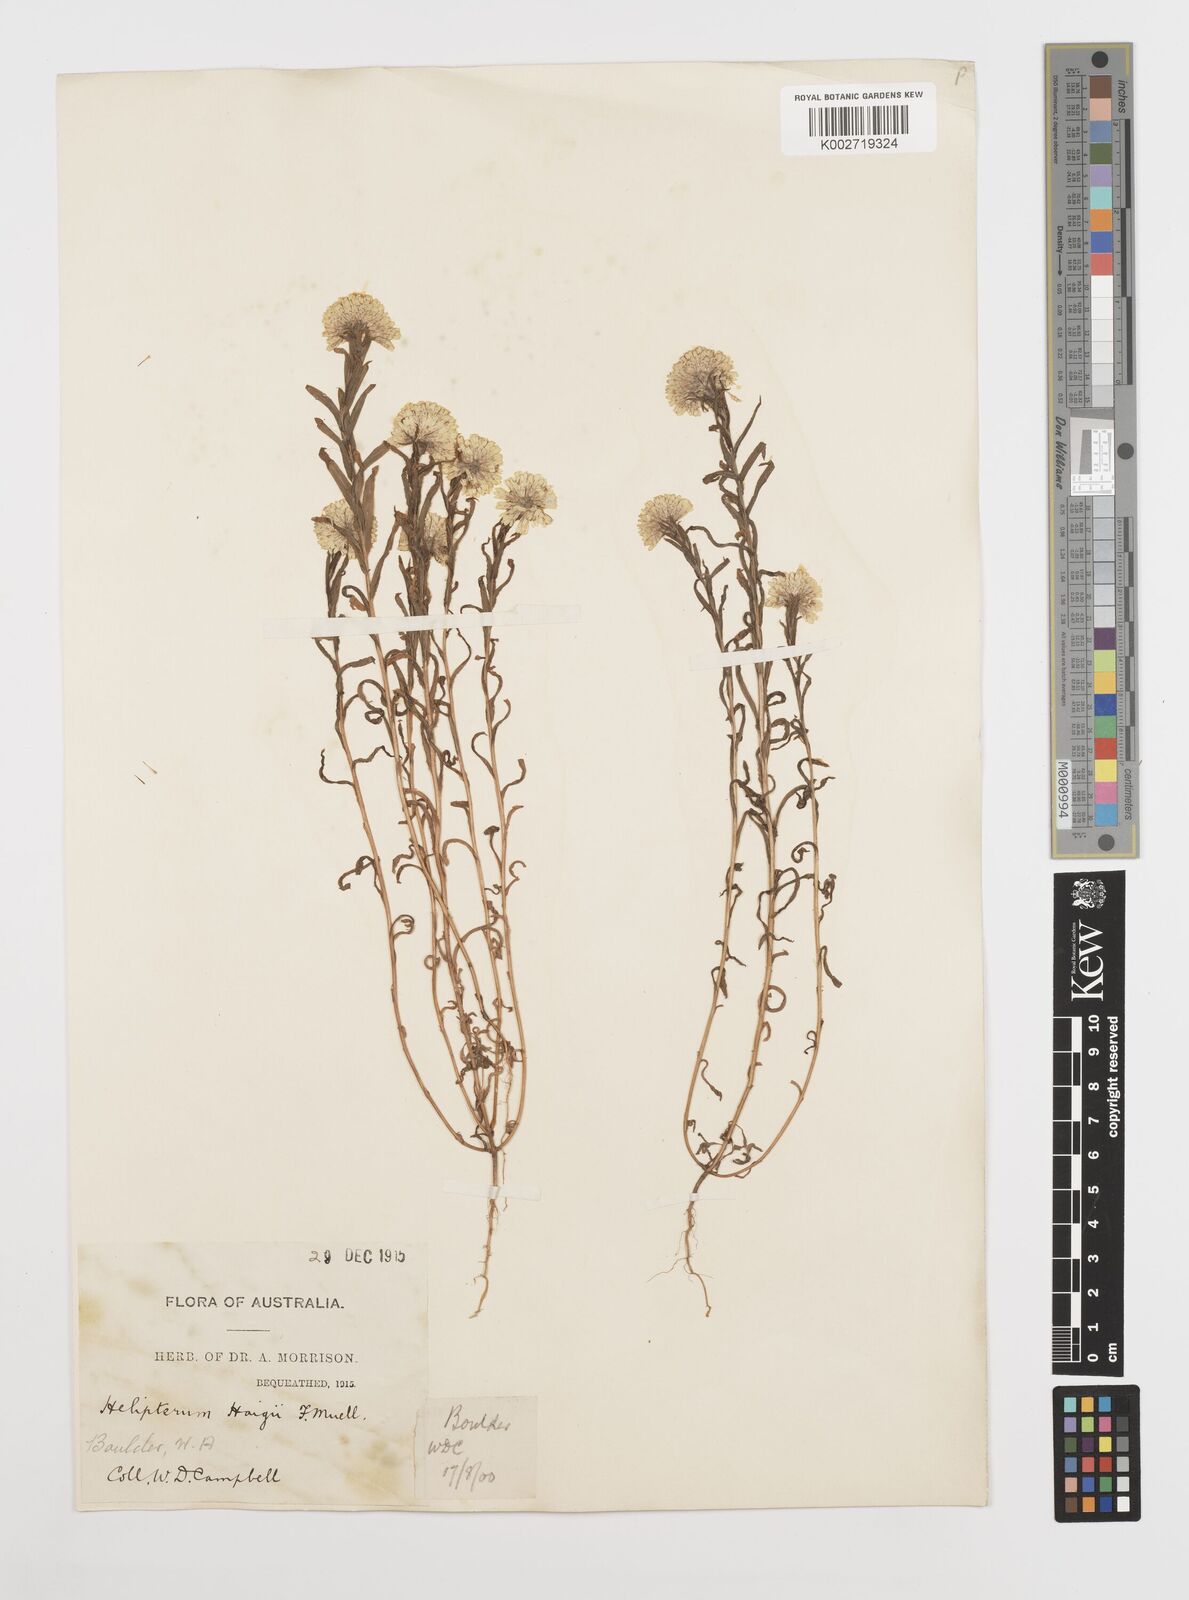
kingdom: Plantae
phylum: Tracheophyta
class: Magnoliopsida
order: Asterales
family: Asteraceae
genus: Rhodanthe
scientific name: Rhodanthe haigii
